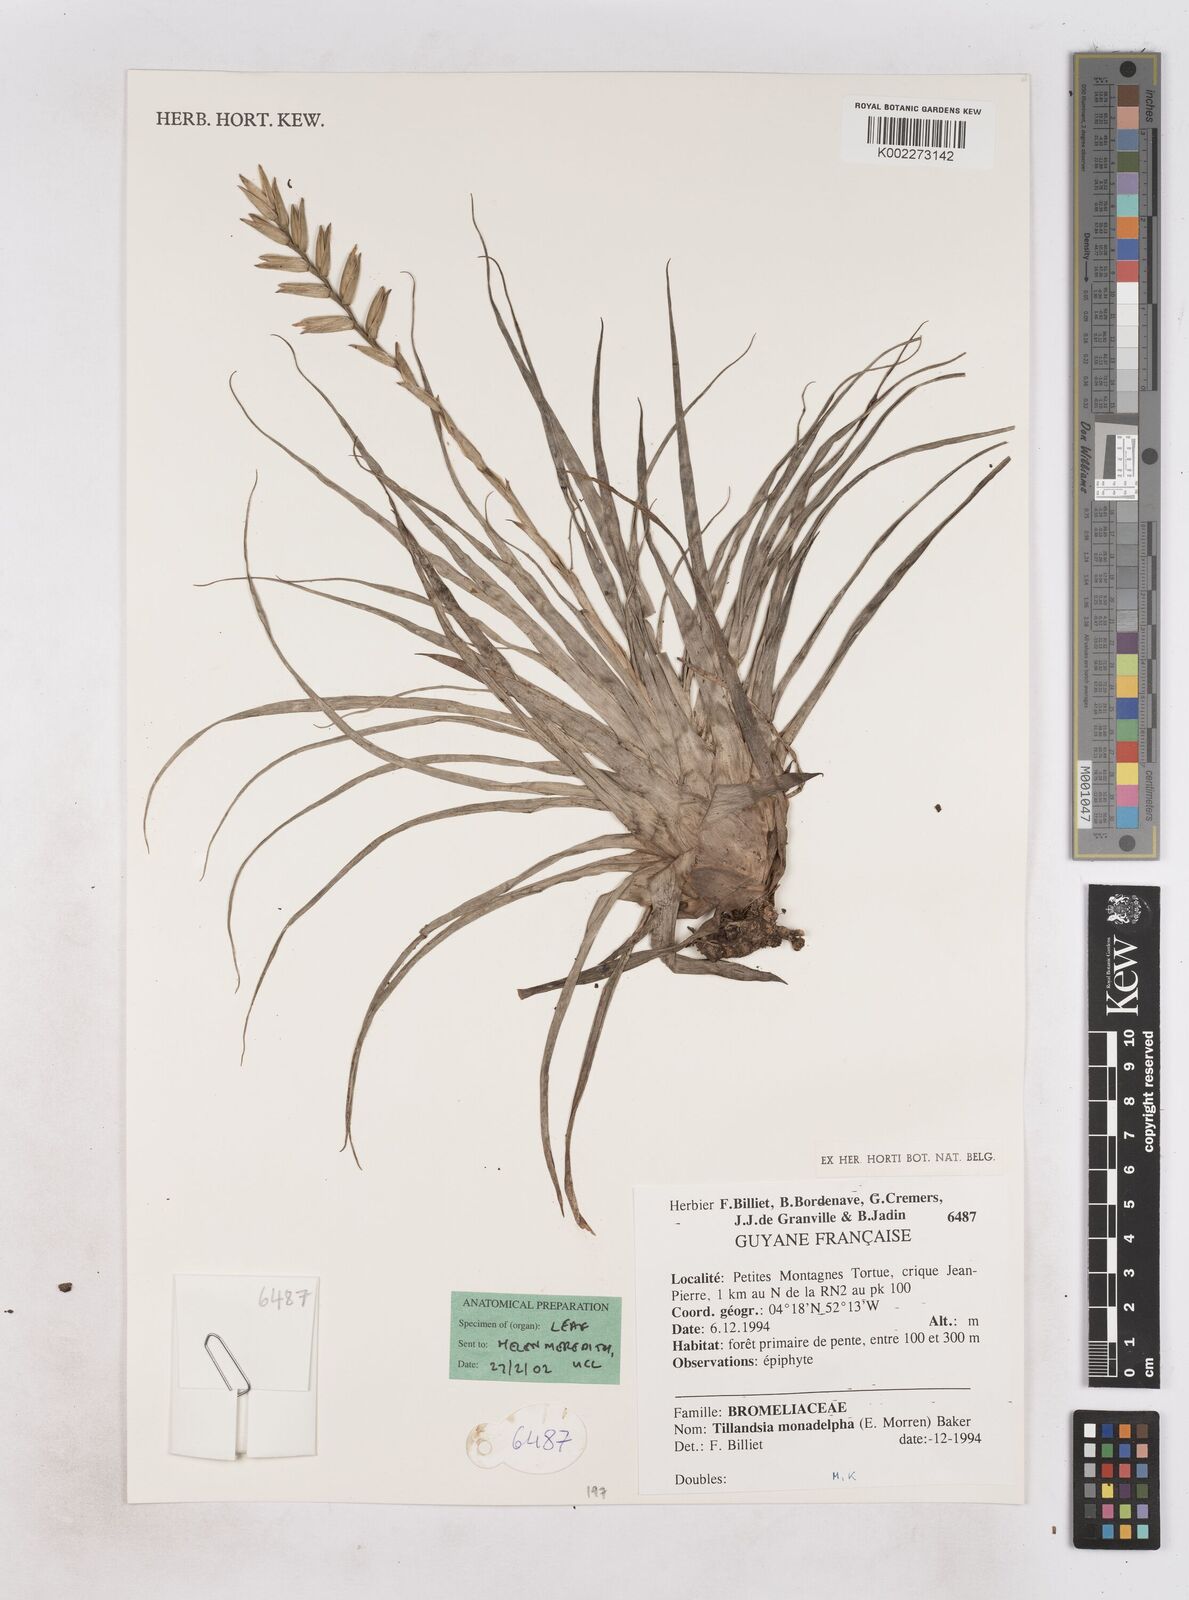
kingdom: Plantae
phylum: Tracheophyta
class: Liliopsida
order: Poales
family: Bromeliaceae
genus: Lemeltonia
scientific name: Lemeltonia monadelpha
